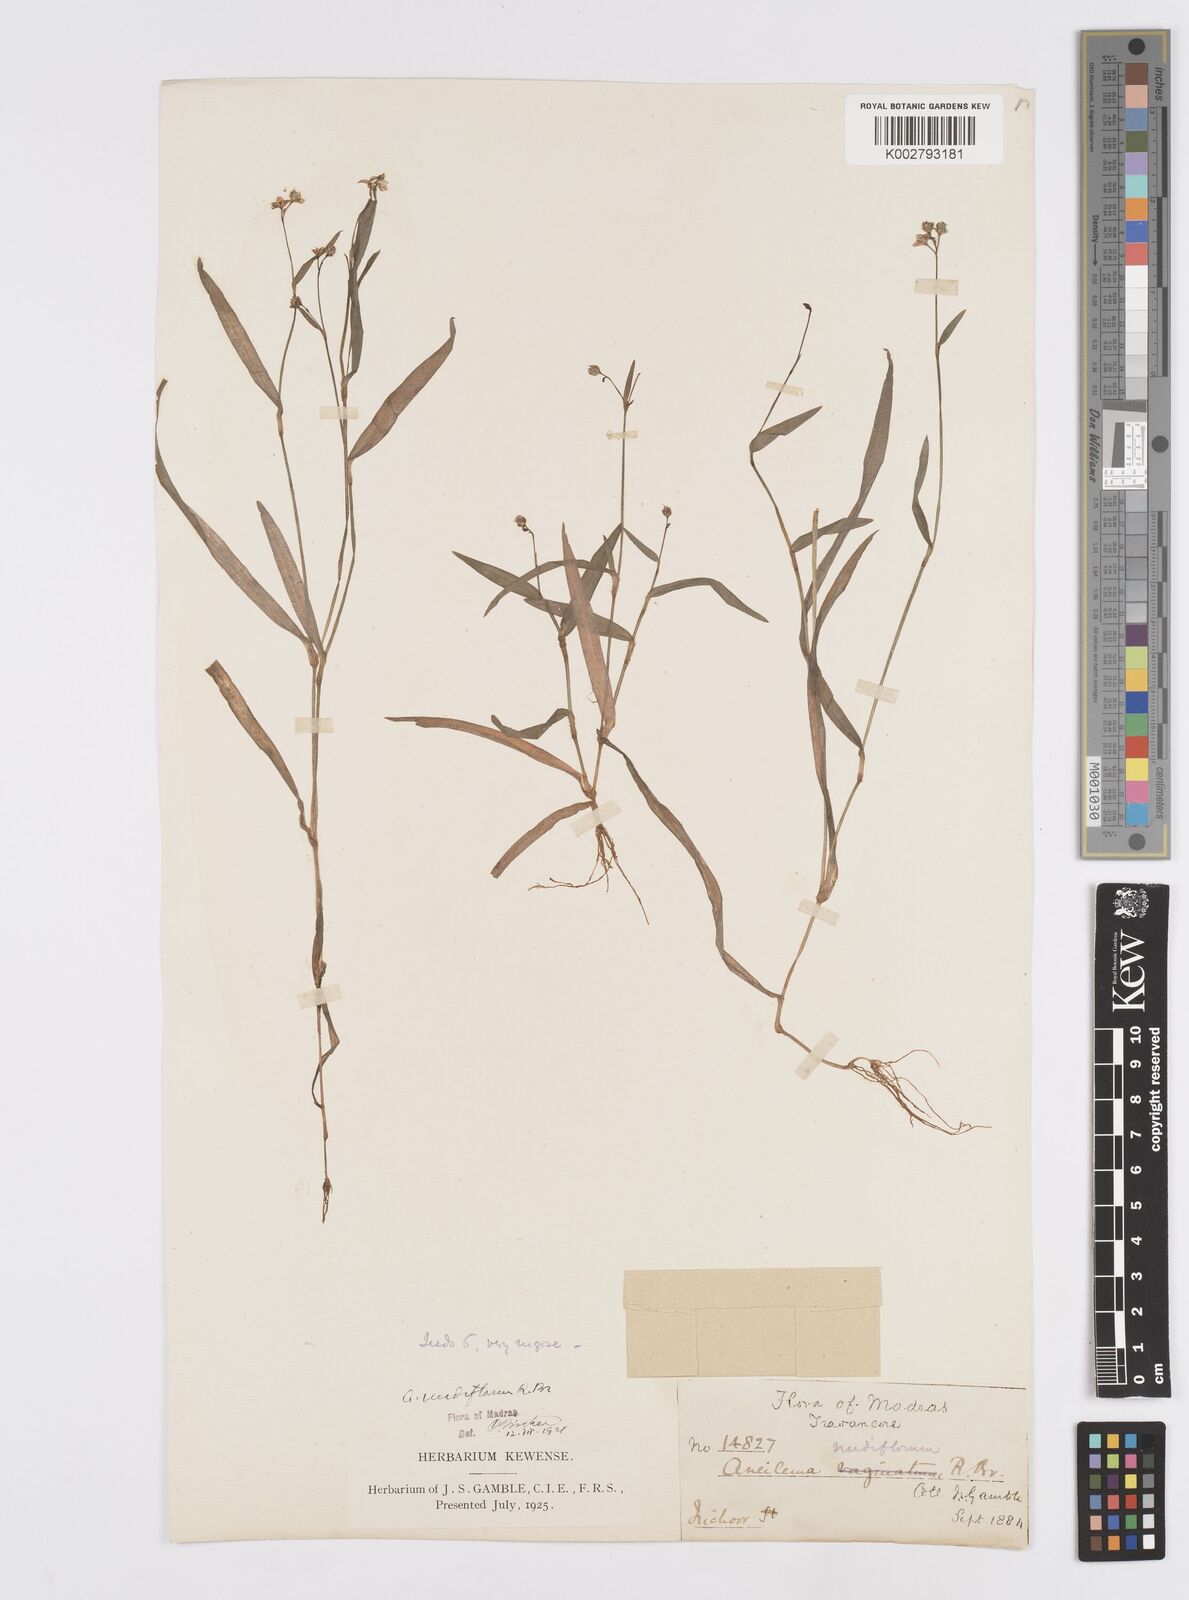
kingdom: Plantae
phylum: Tracheophyta
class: Liliopsida
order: Commelinales
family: Commelinaceae
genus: Murdannia
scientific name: Murdannia
